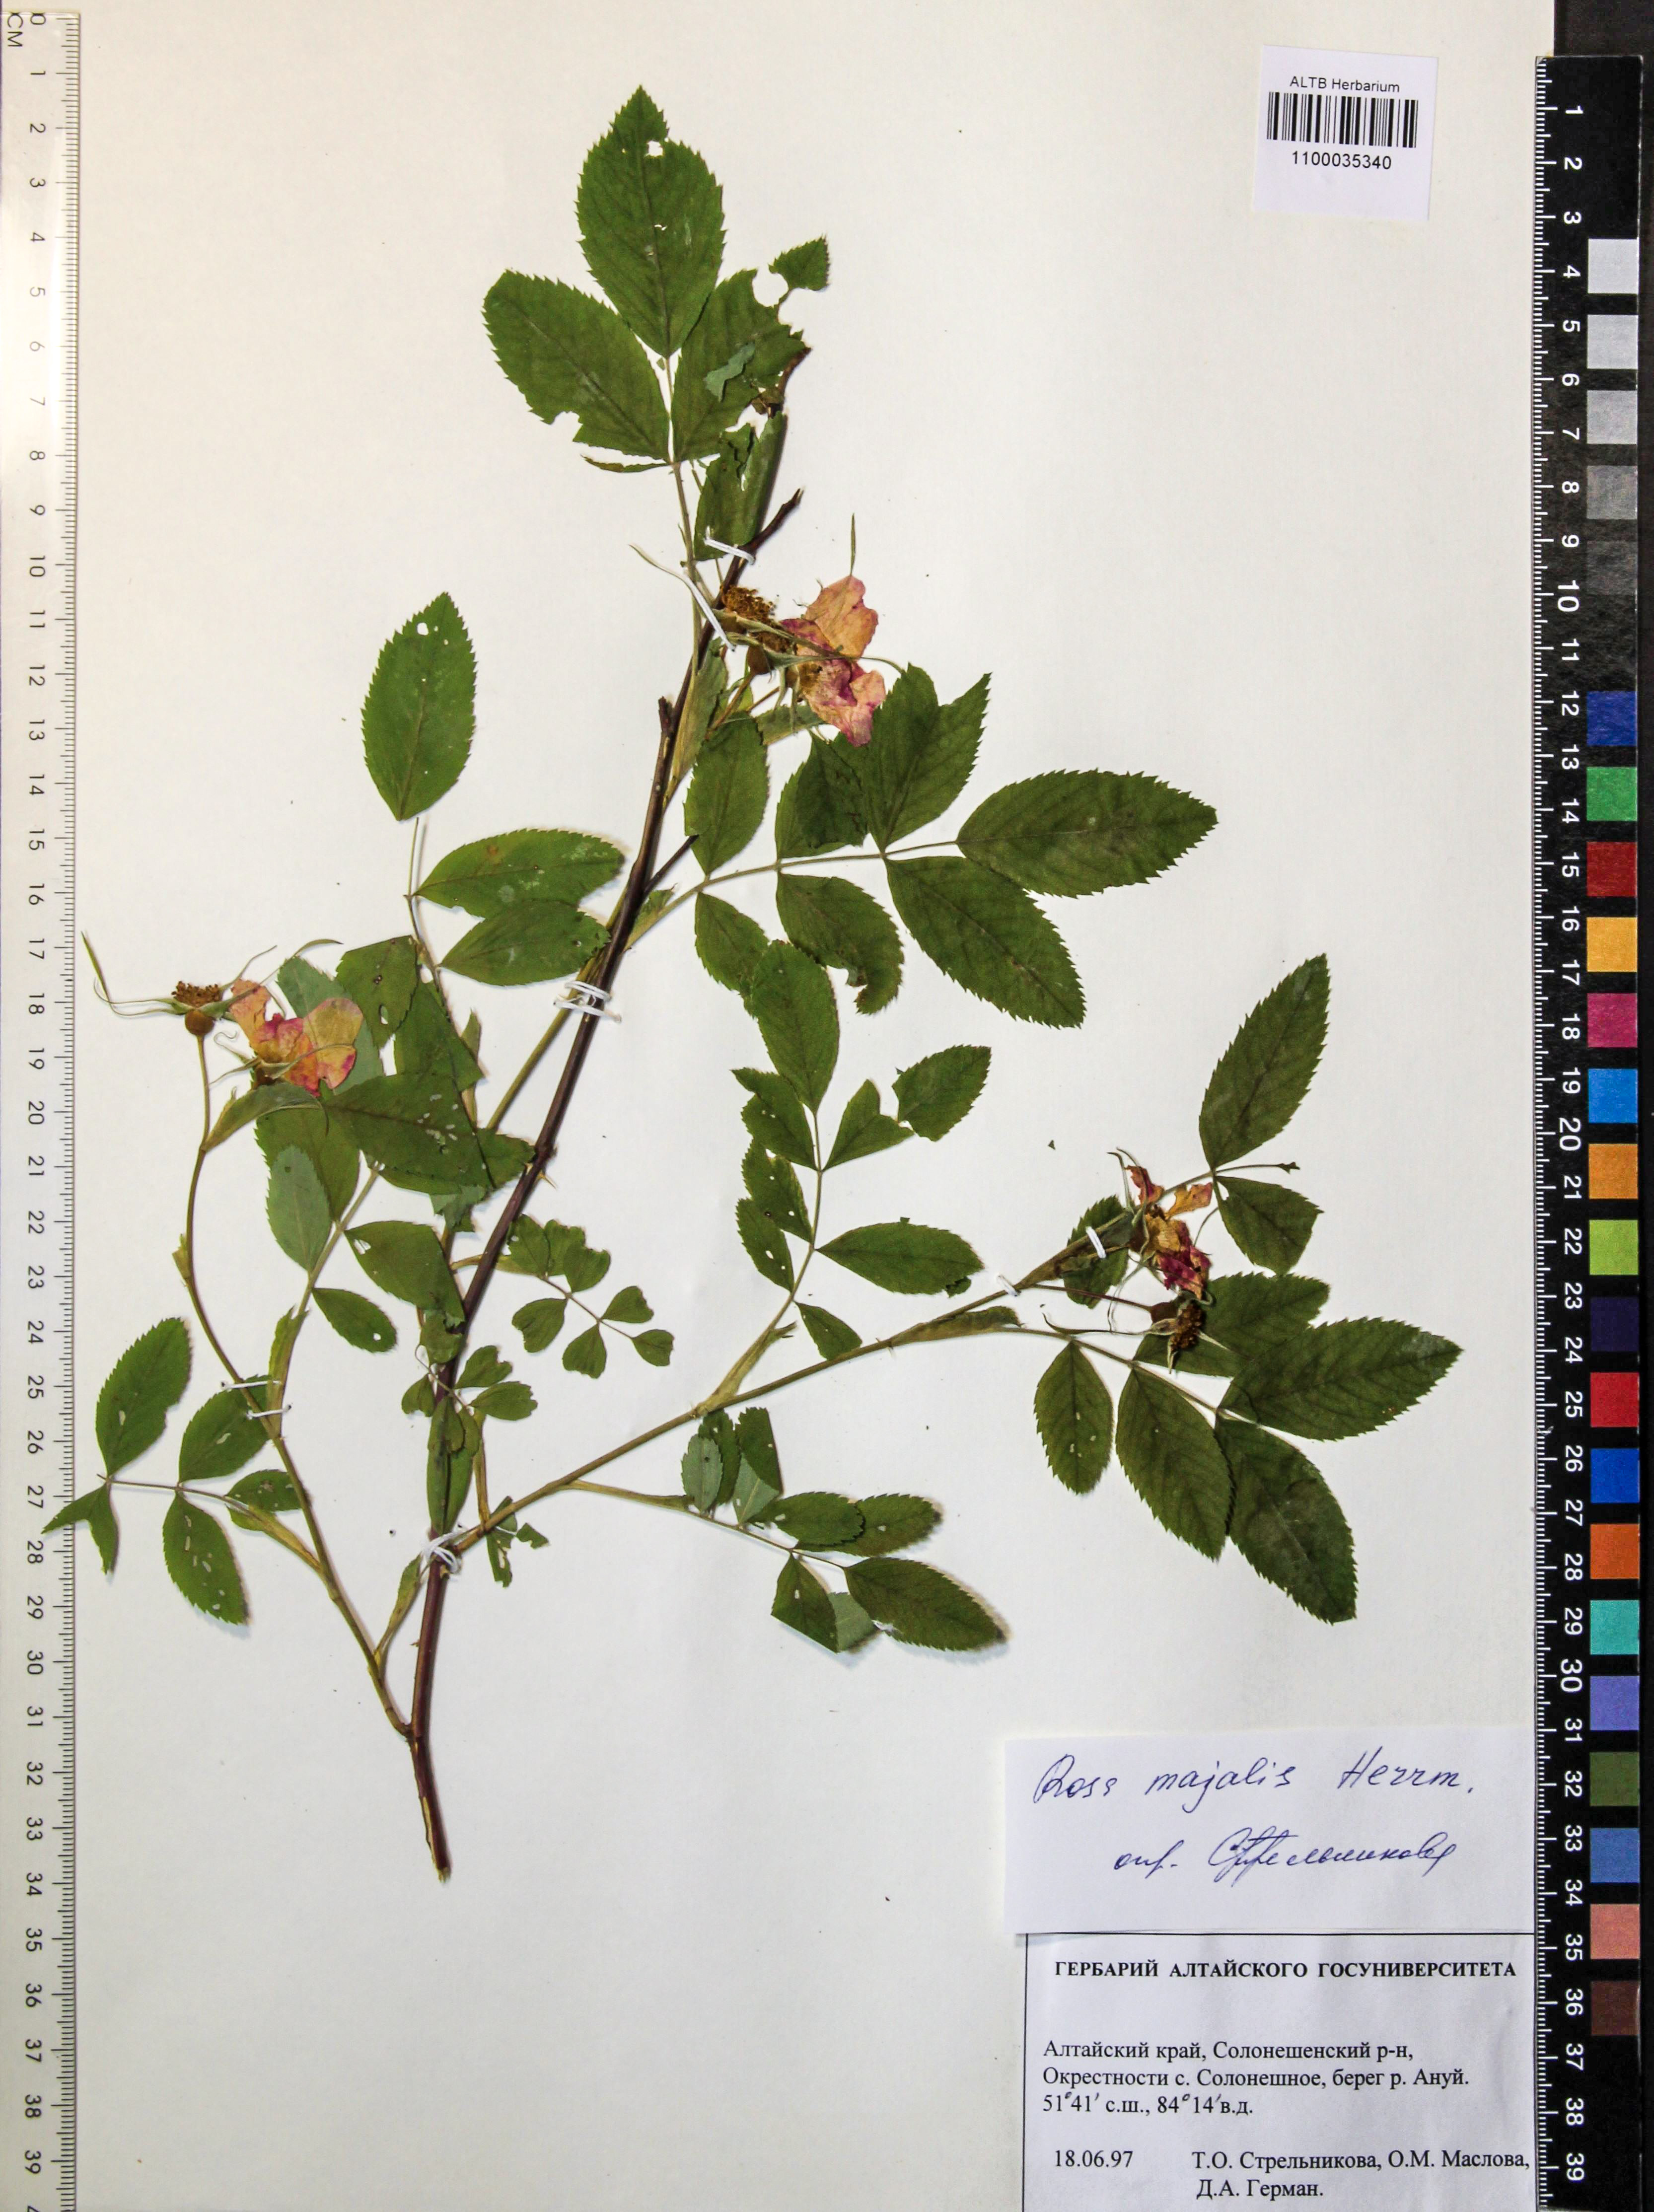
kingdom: Plantae
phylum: Tracheophyta
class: Magnoliopsida
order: Rosales
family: Rosaceae
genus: Rosa
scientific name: Rosa majalis
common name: Cinnamon rose
